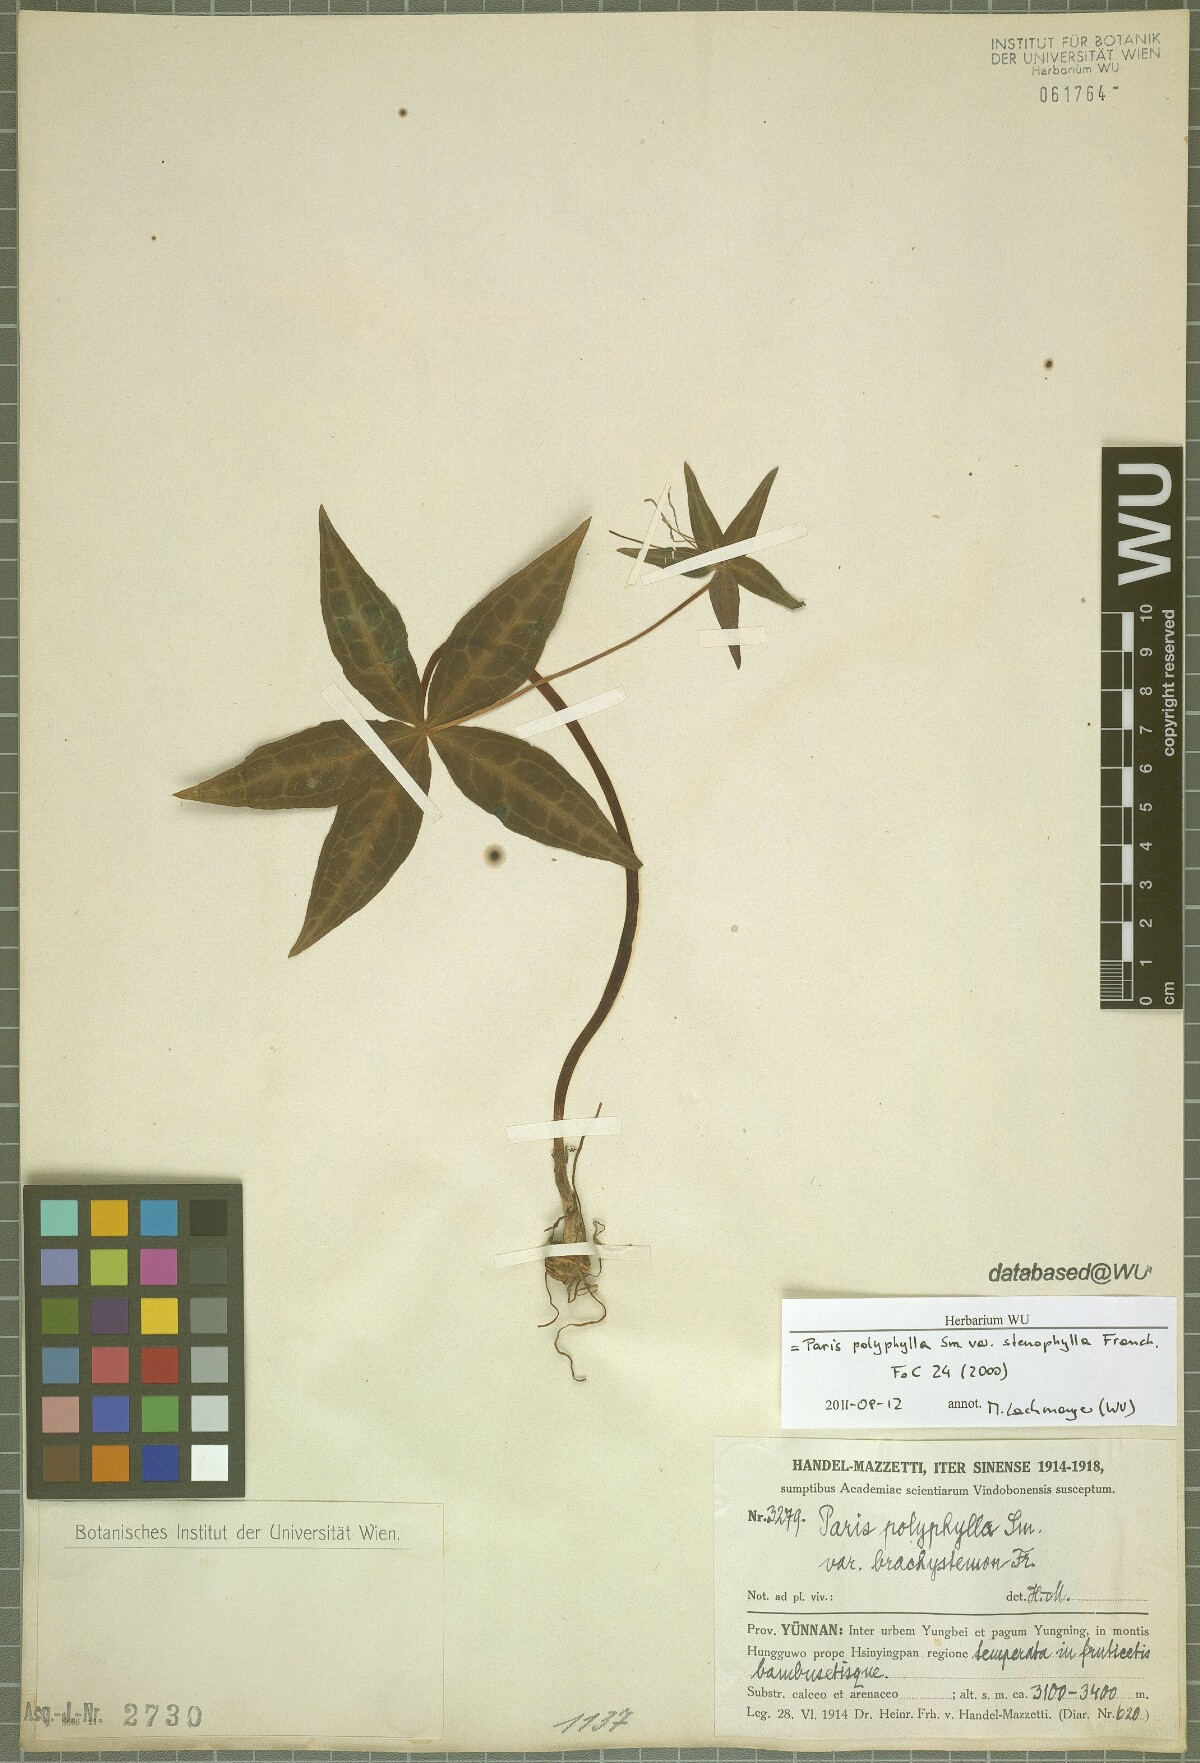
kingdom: Plantae
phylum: Tracheophyta
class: Liliopsida
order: Liliales
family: Melanthiaceae
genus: Paris
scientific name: Paris lancifolia
